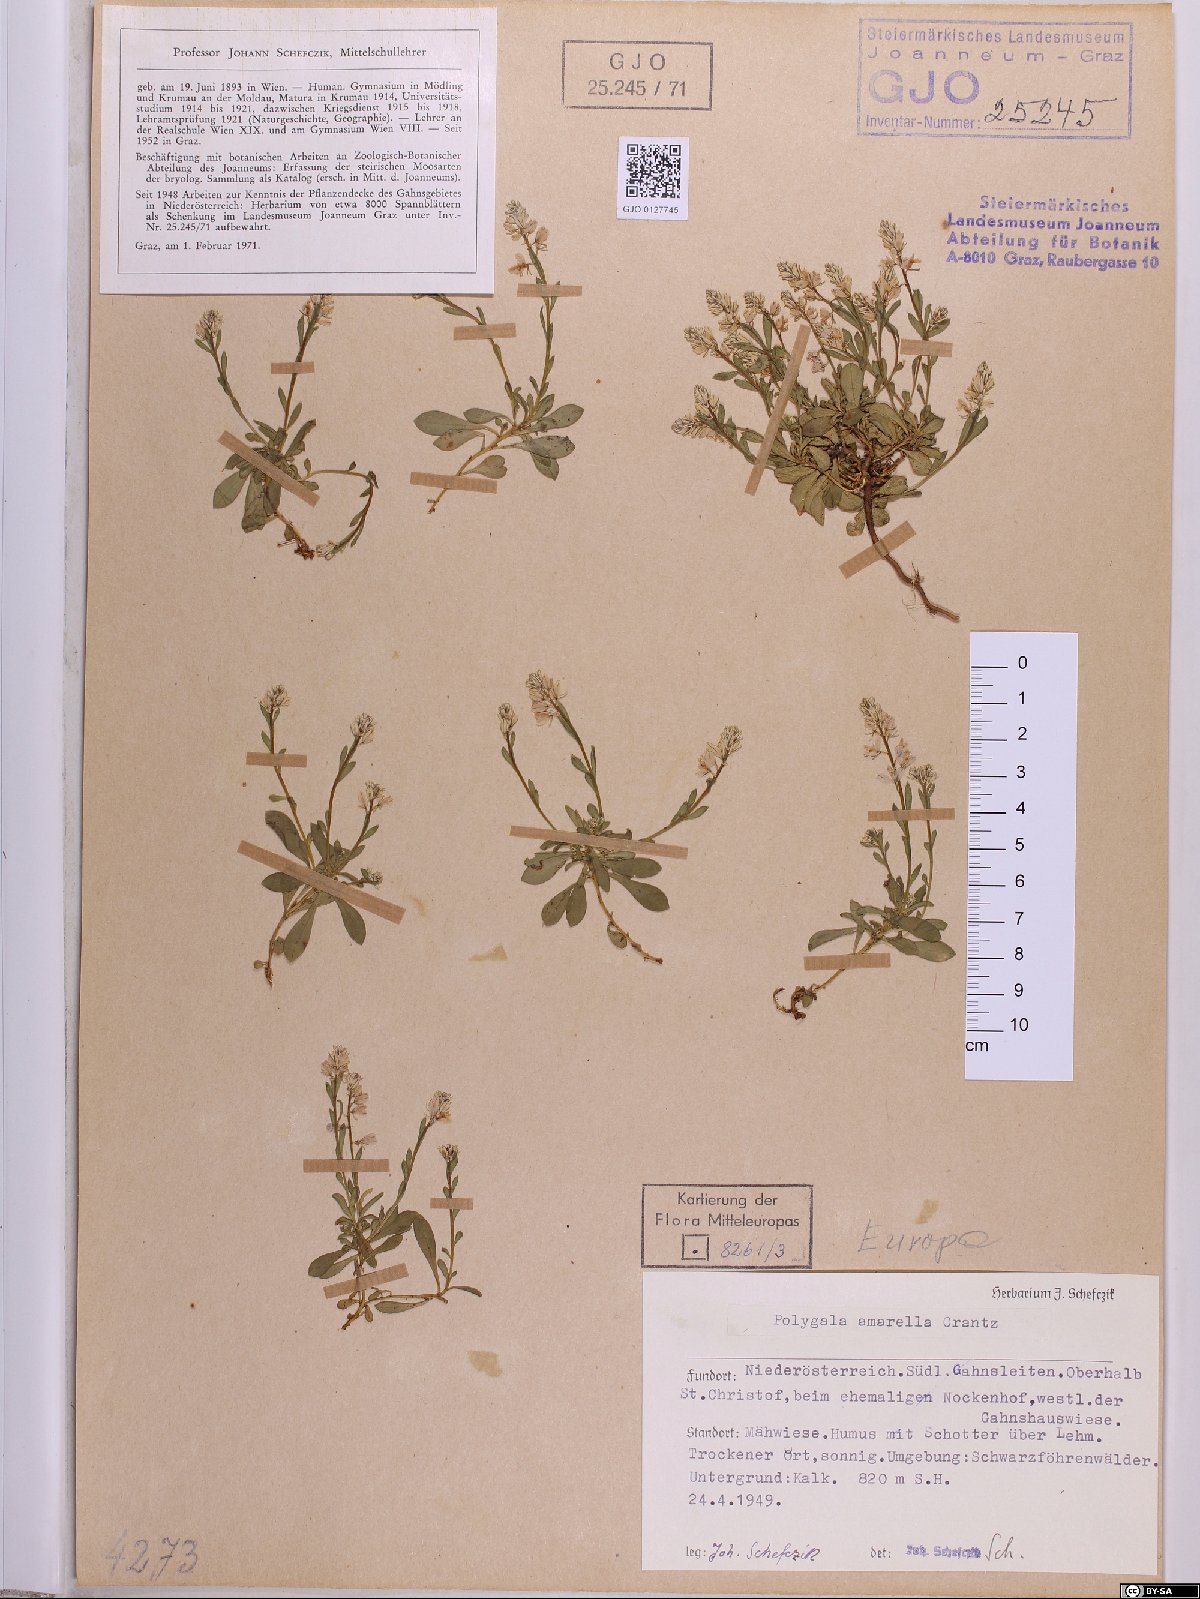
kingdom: Plantae
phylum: Tracheophyta
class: Magnoliopsida
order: Fabales
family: Polygalaceae
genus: Polygala
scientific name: Polygala amarella
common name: Dwarf milkwort
